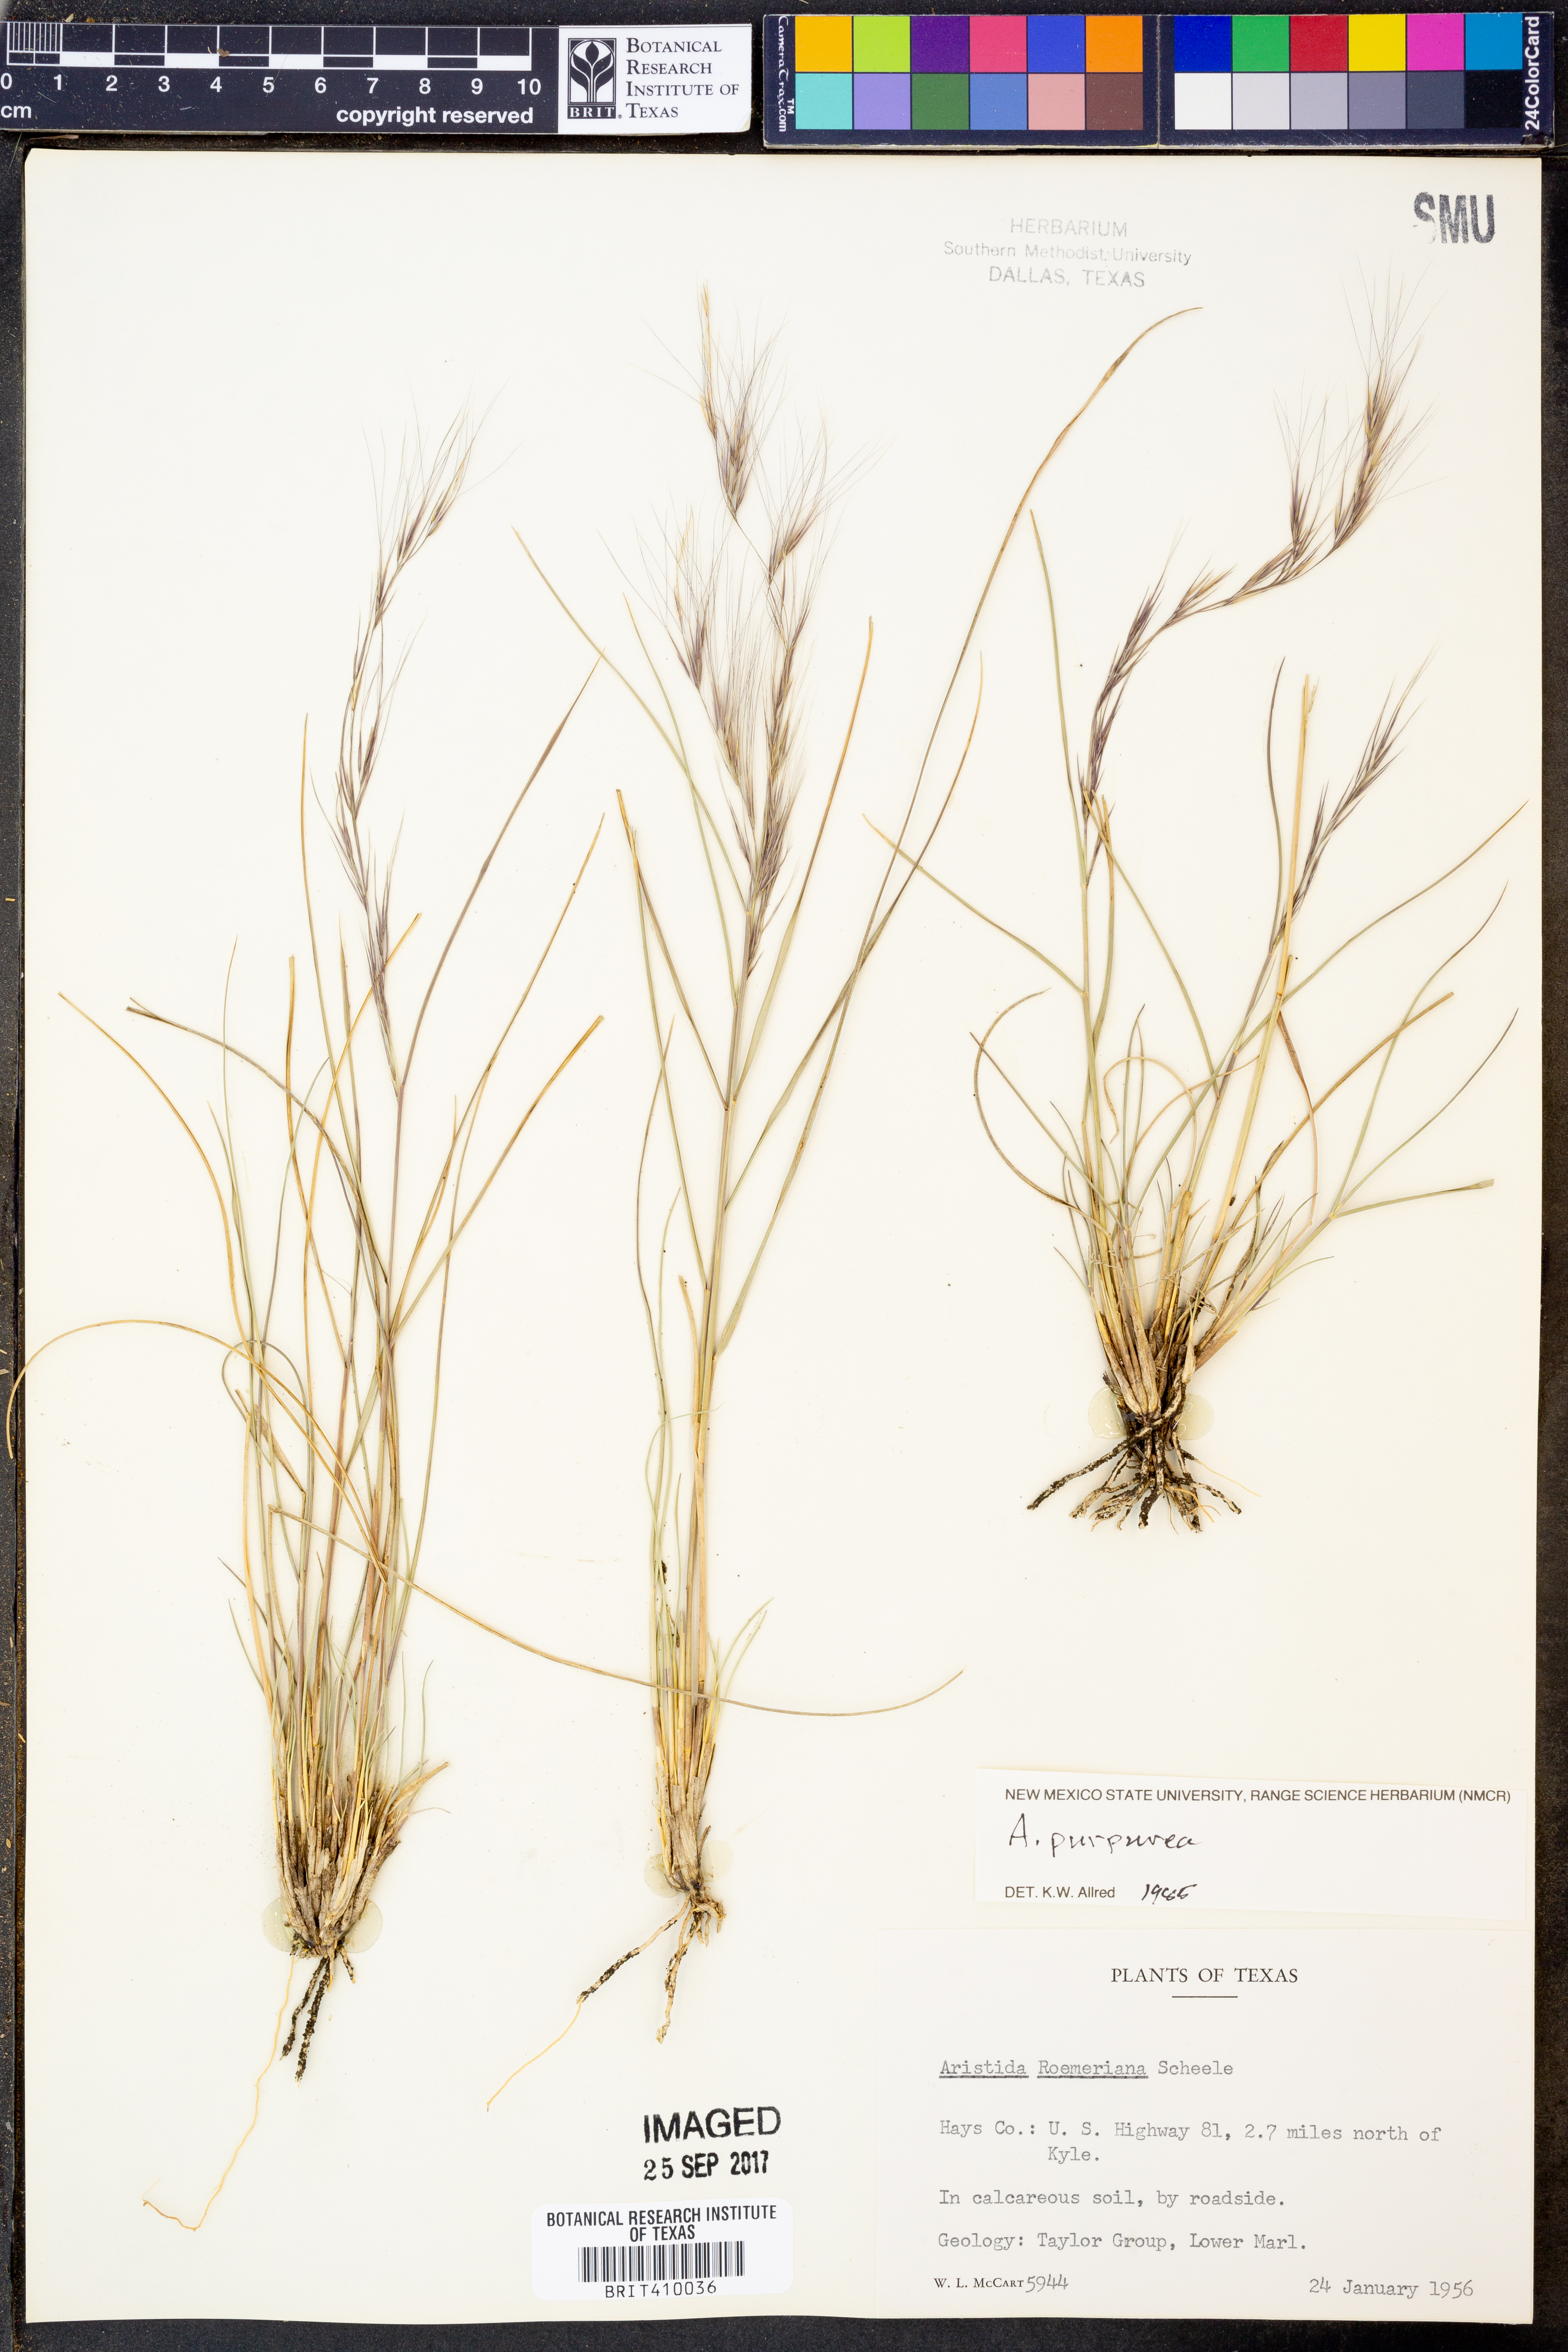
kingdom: Plantae
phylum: Tracheophyta
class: Liliopsida
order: Poales
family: Poaceae
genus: Aristida
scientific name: Aristida purpurea
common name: Purple threeawn
